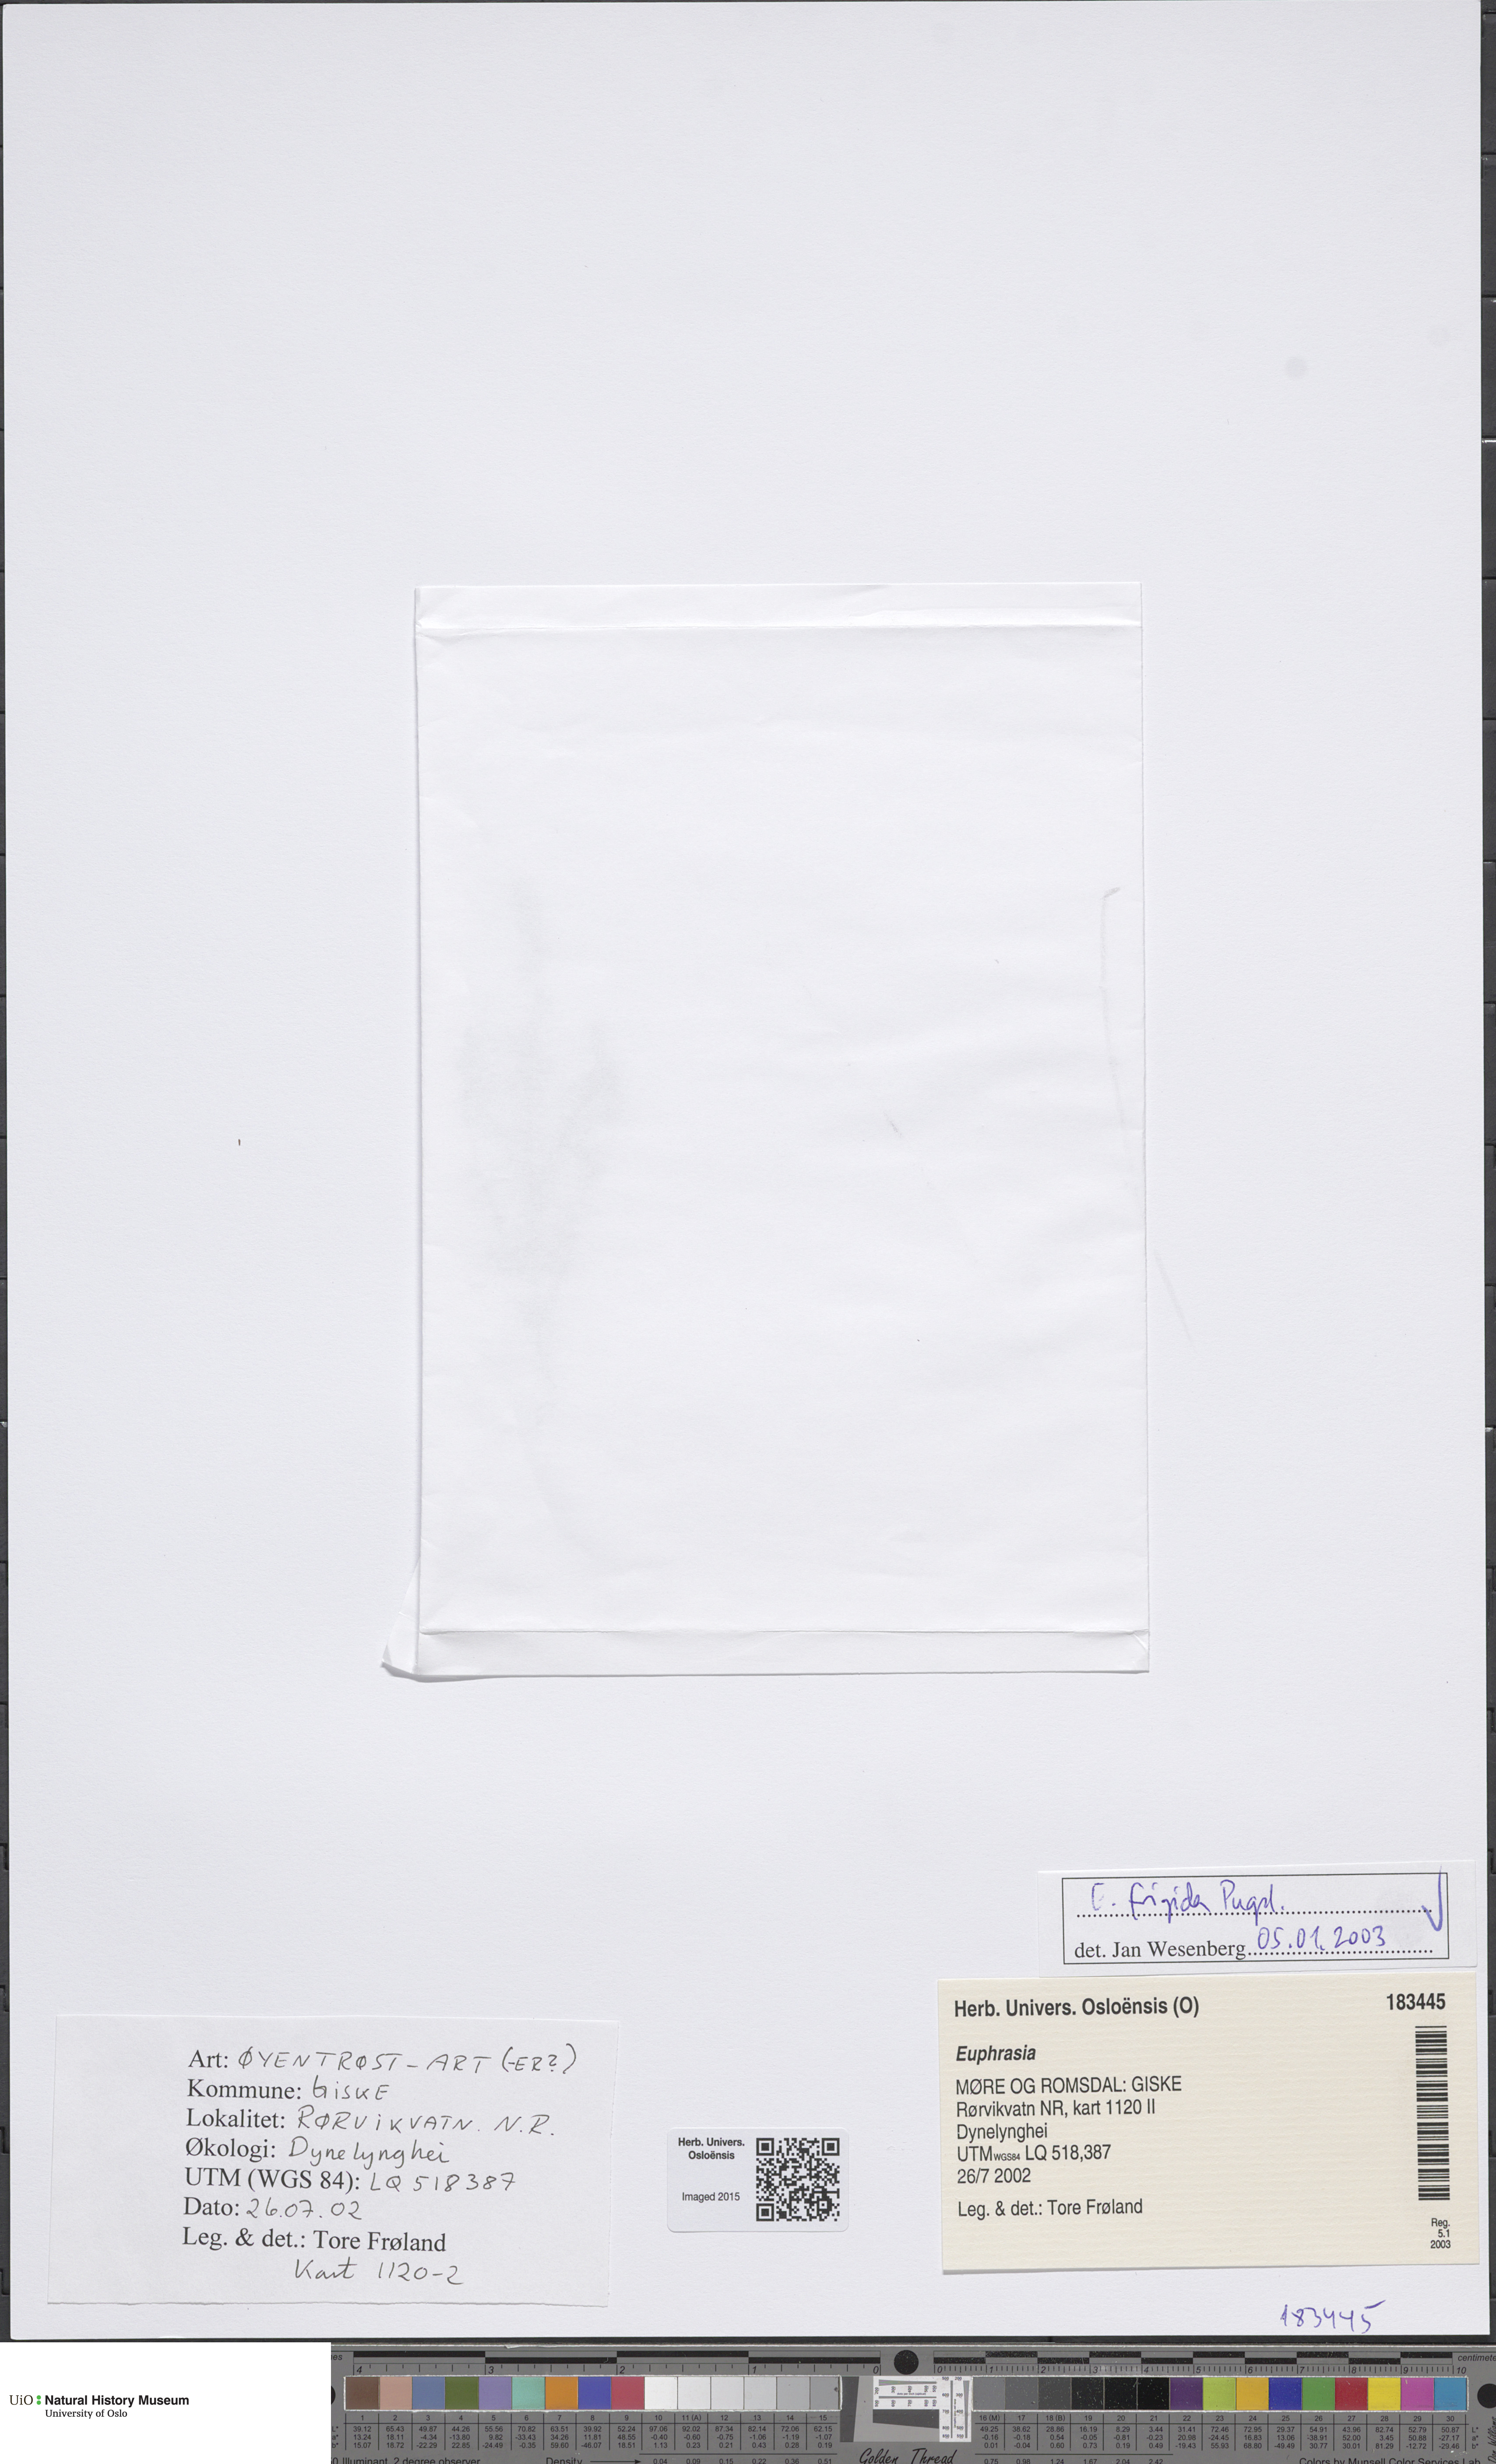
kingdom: Plantae
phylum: Tracheophyta
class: Magnoliopsida
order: Lamiales
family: Orobanchaceae
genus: Euphrasia
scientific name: Euphrasia frigida
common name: An eyebright
